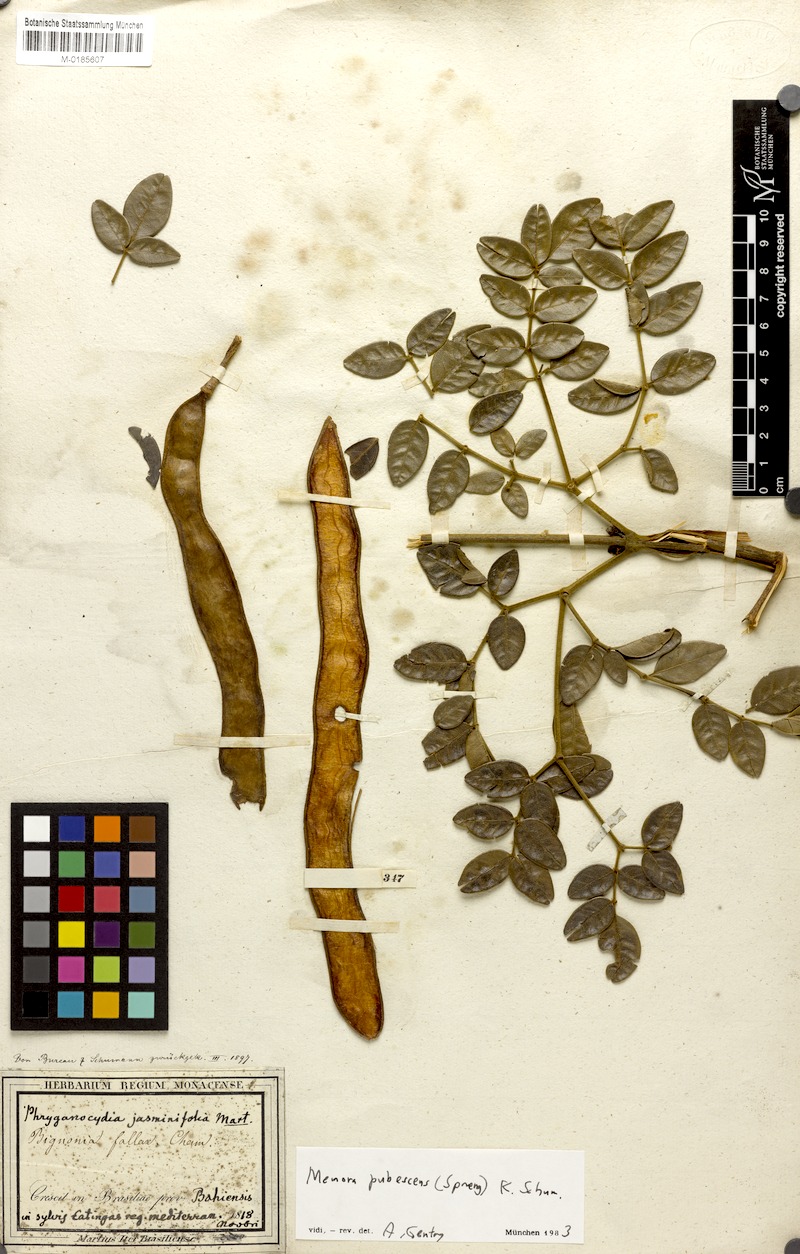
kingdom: Plantae
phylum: Tracheophyta
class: Magnoliopsida
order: Lamiales
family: Bignoniaceae
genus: Adenocalymma
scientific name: Adenocalymma pubescens
